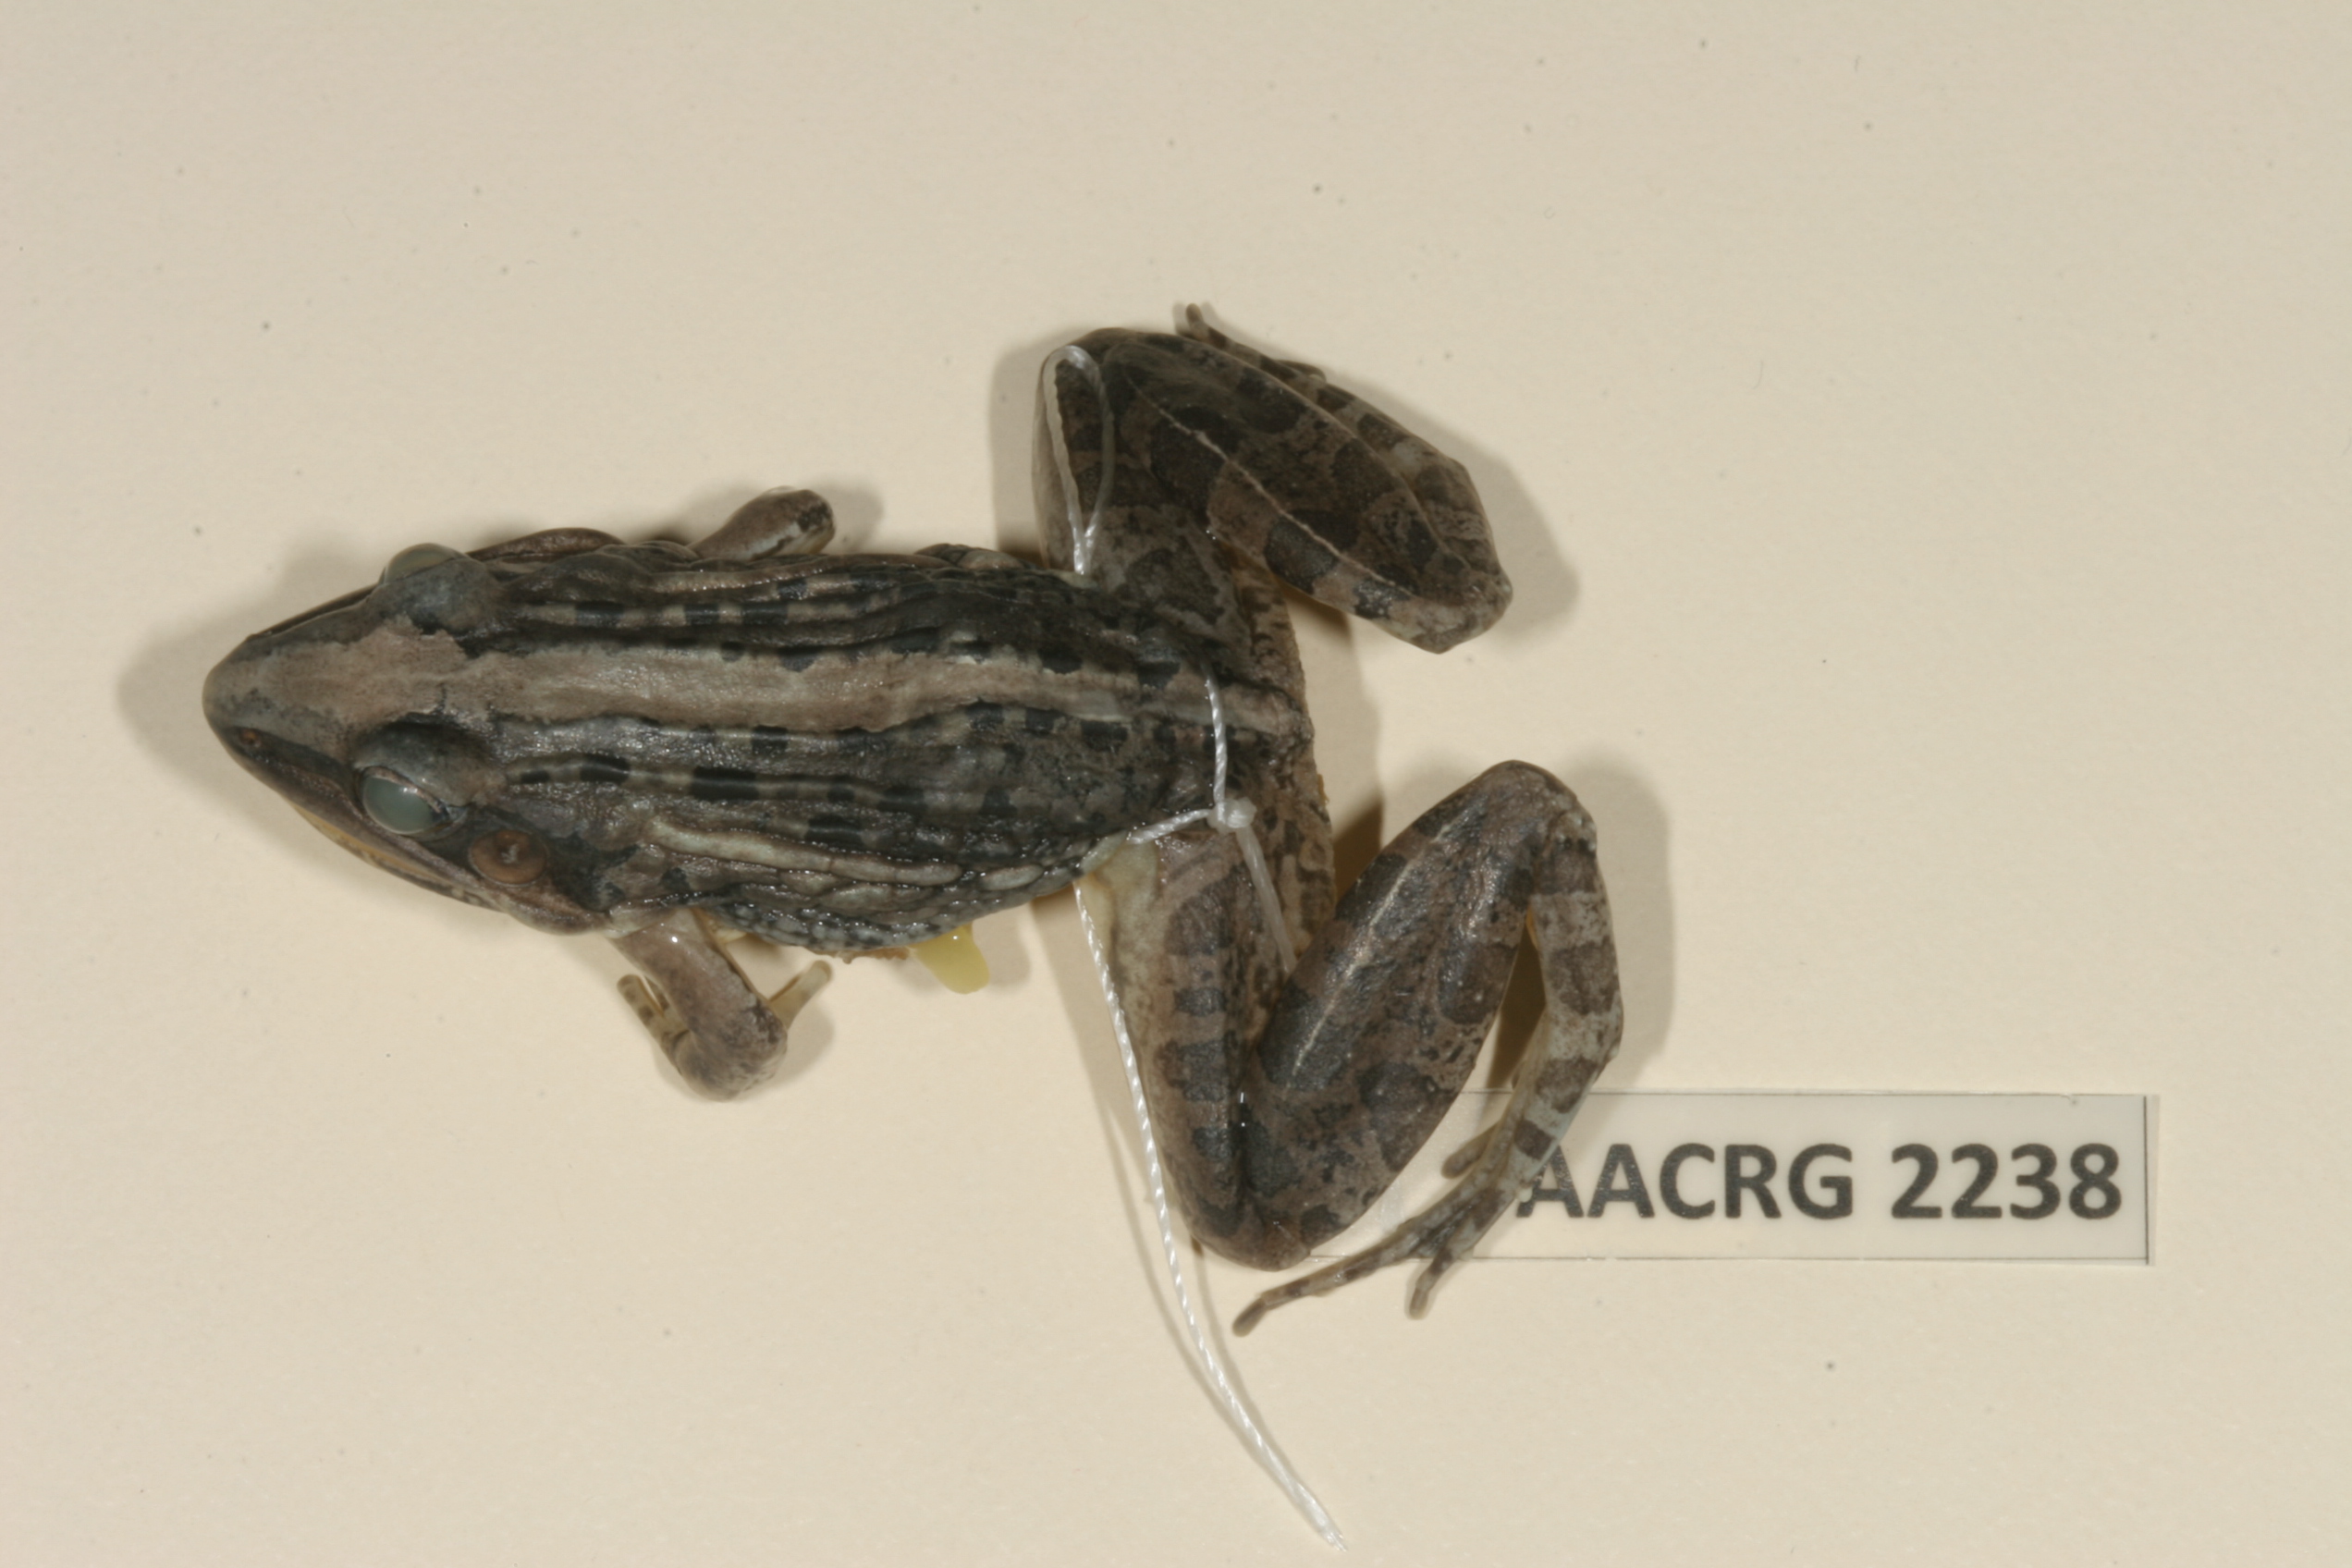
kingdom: Animalia
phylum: Chordata
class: Amphibia
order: Anura
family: Ptychadenidae
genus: Ptychadena
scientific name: Ptychadena mossambica
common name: Mozambique ridged frog
